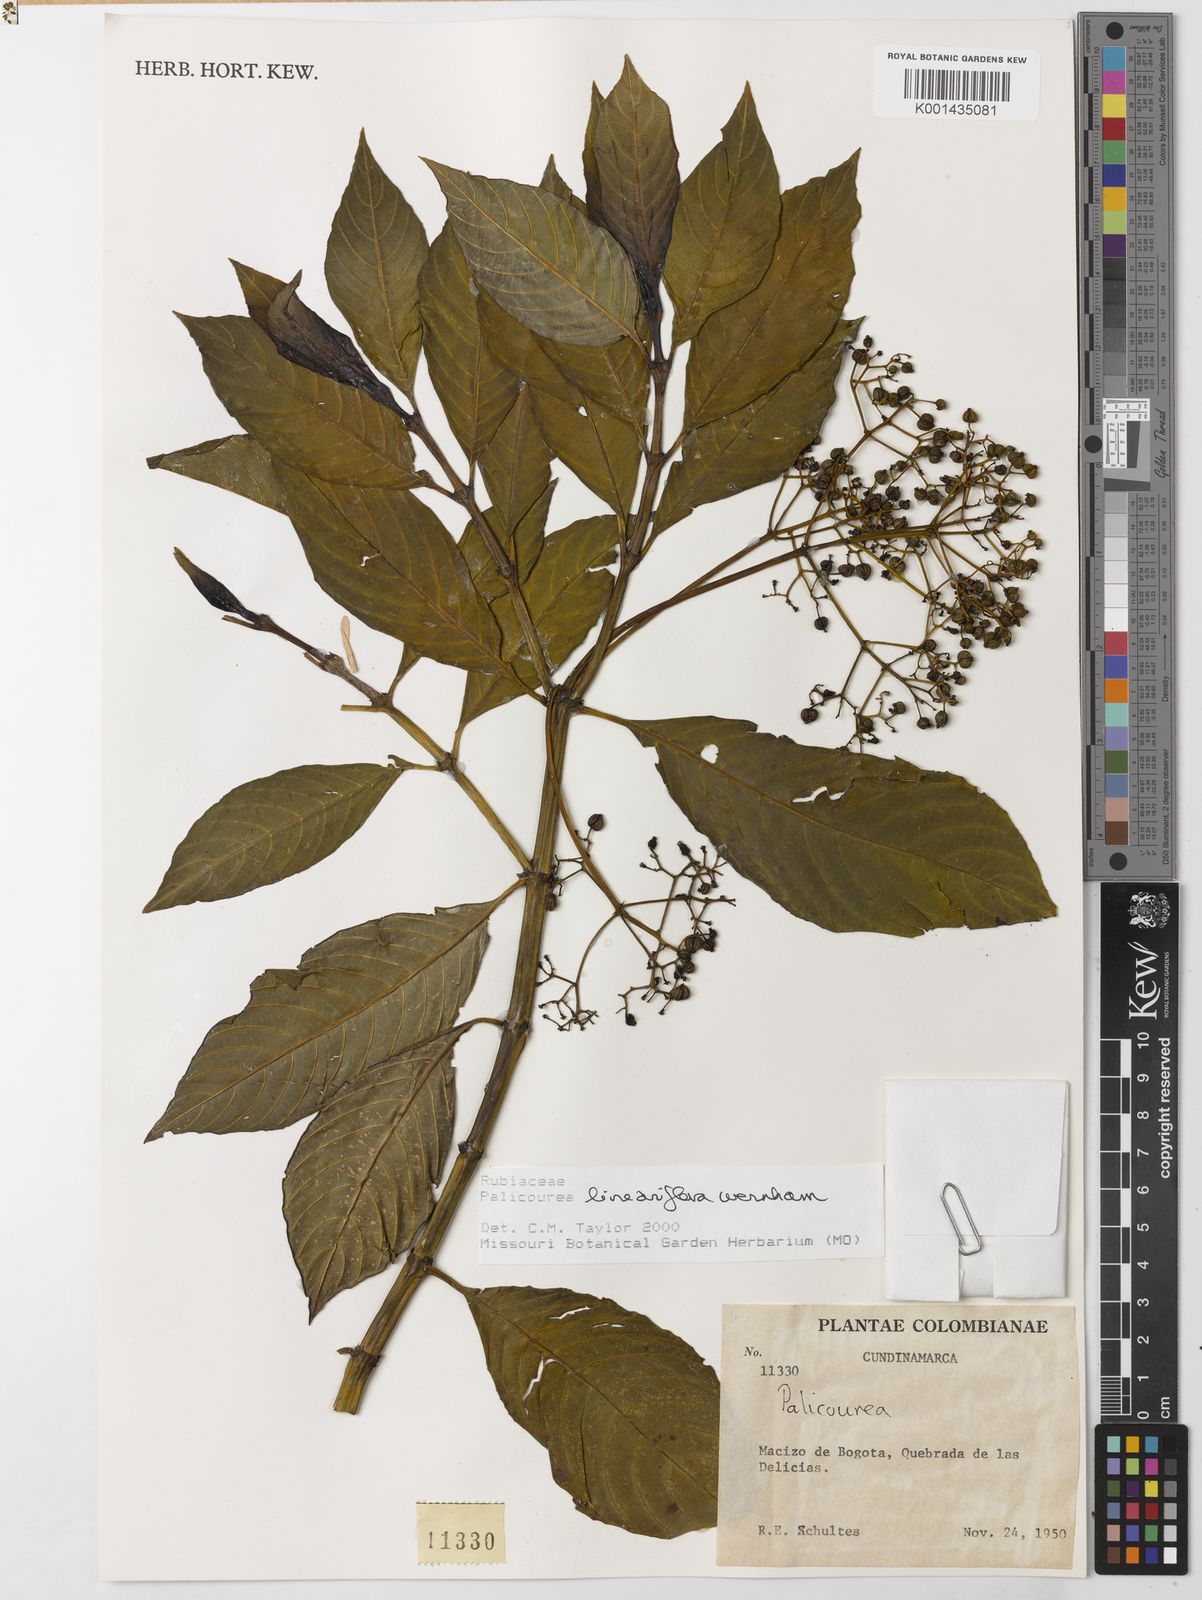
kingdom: Plantae
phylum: Tracheophyta
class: Magnoliopsida
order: Gentianales
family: Rubiaceae
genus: Palicourea
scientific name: Palicourea lineariflora
